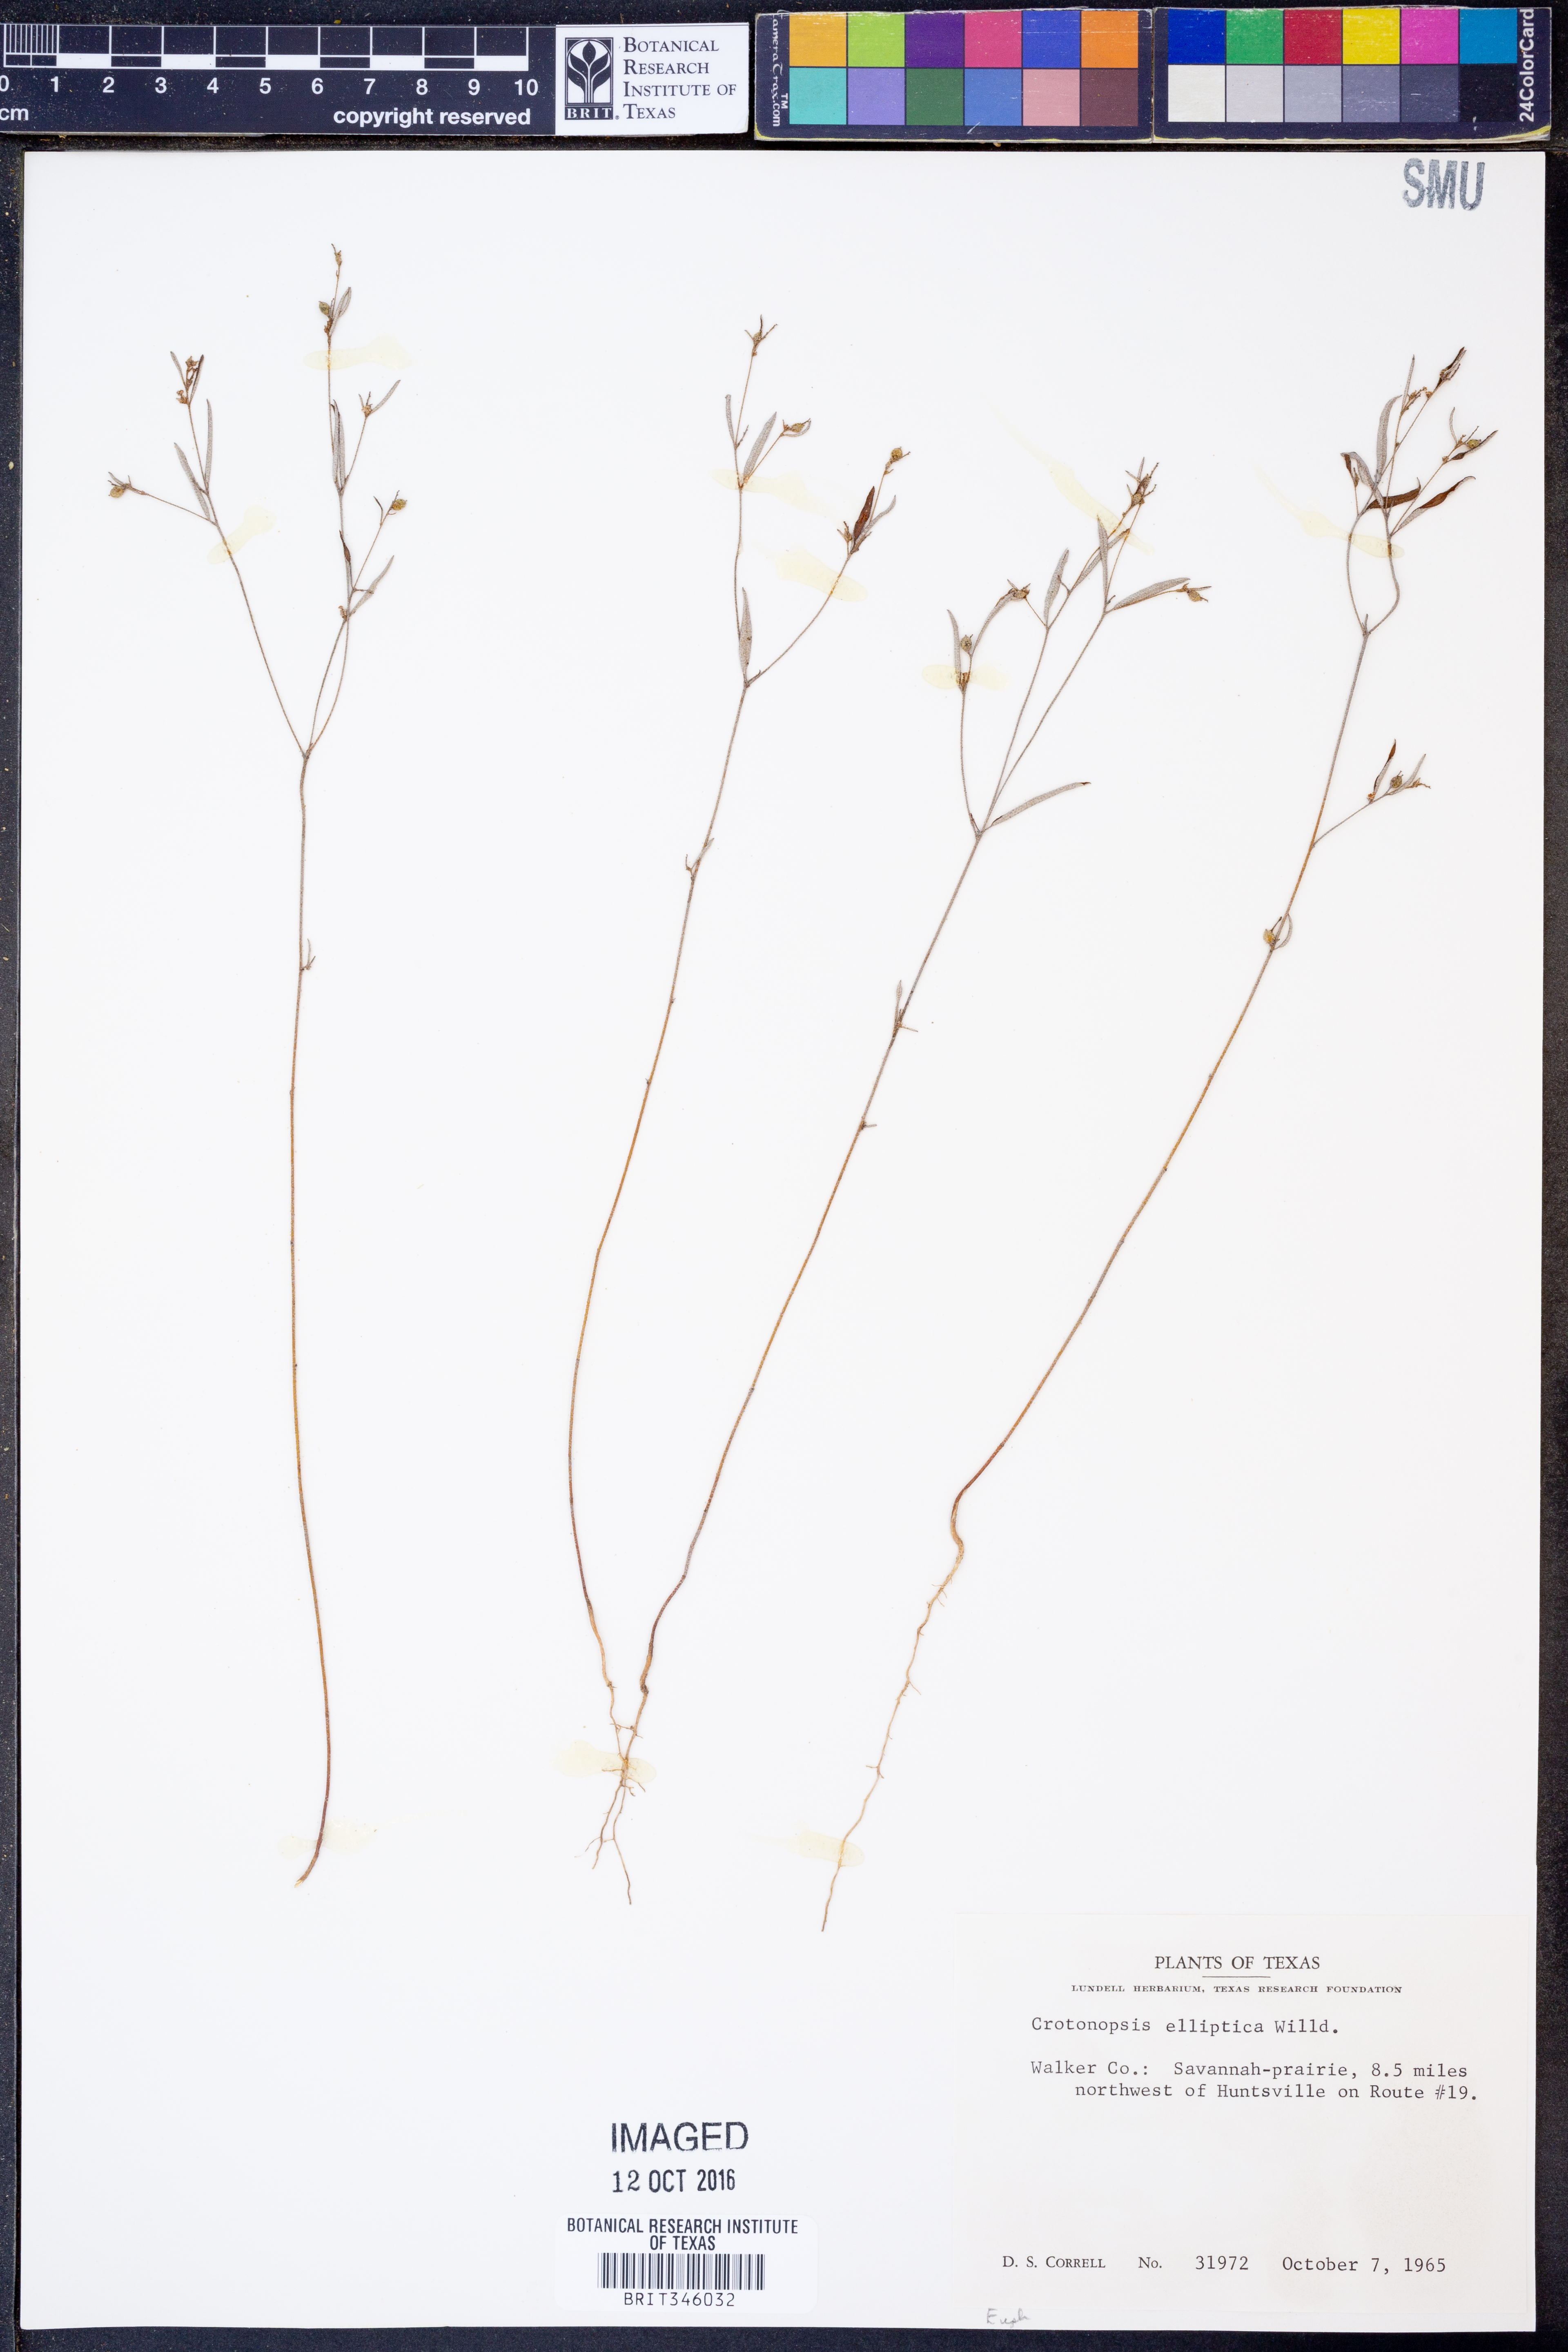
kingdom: Plantae
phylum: Tracheophyta
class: Magnoliopsida
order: Malpighiales
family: Euphorbiaceae
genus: Croton
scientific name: Croton michauxii
